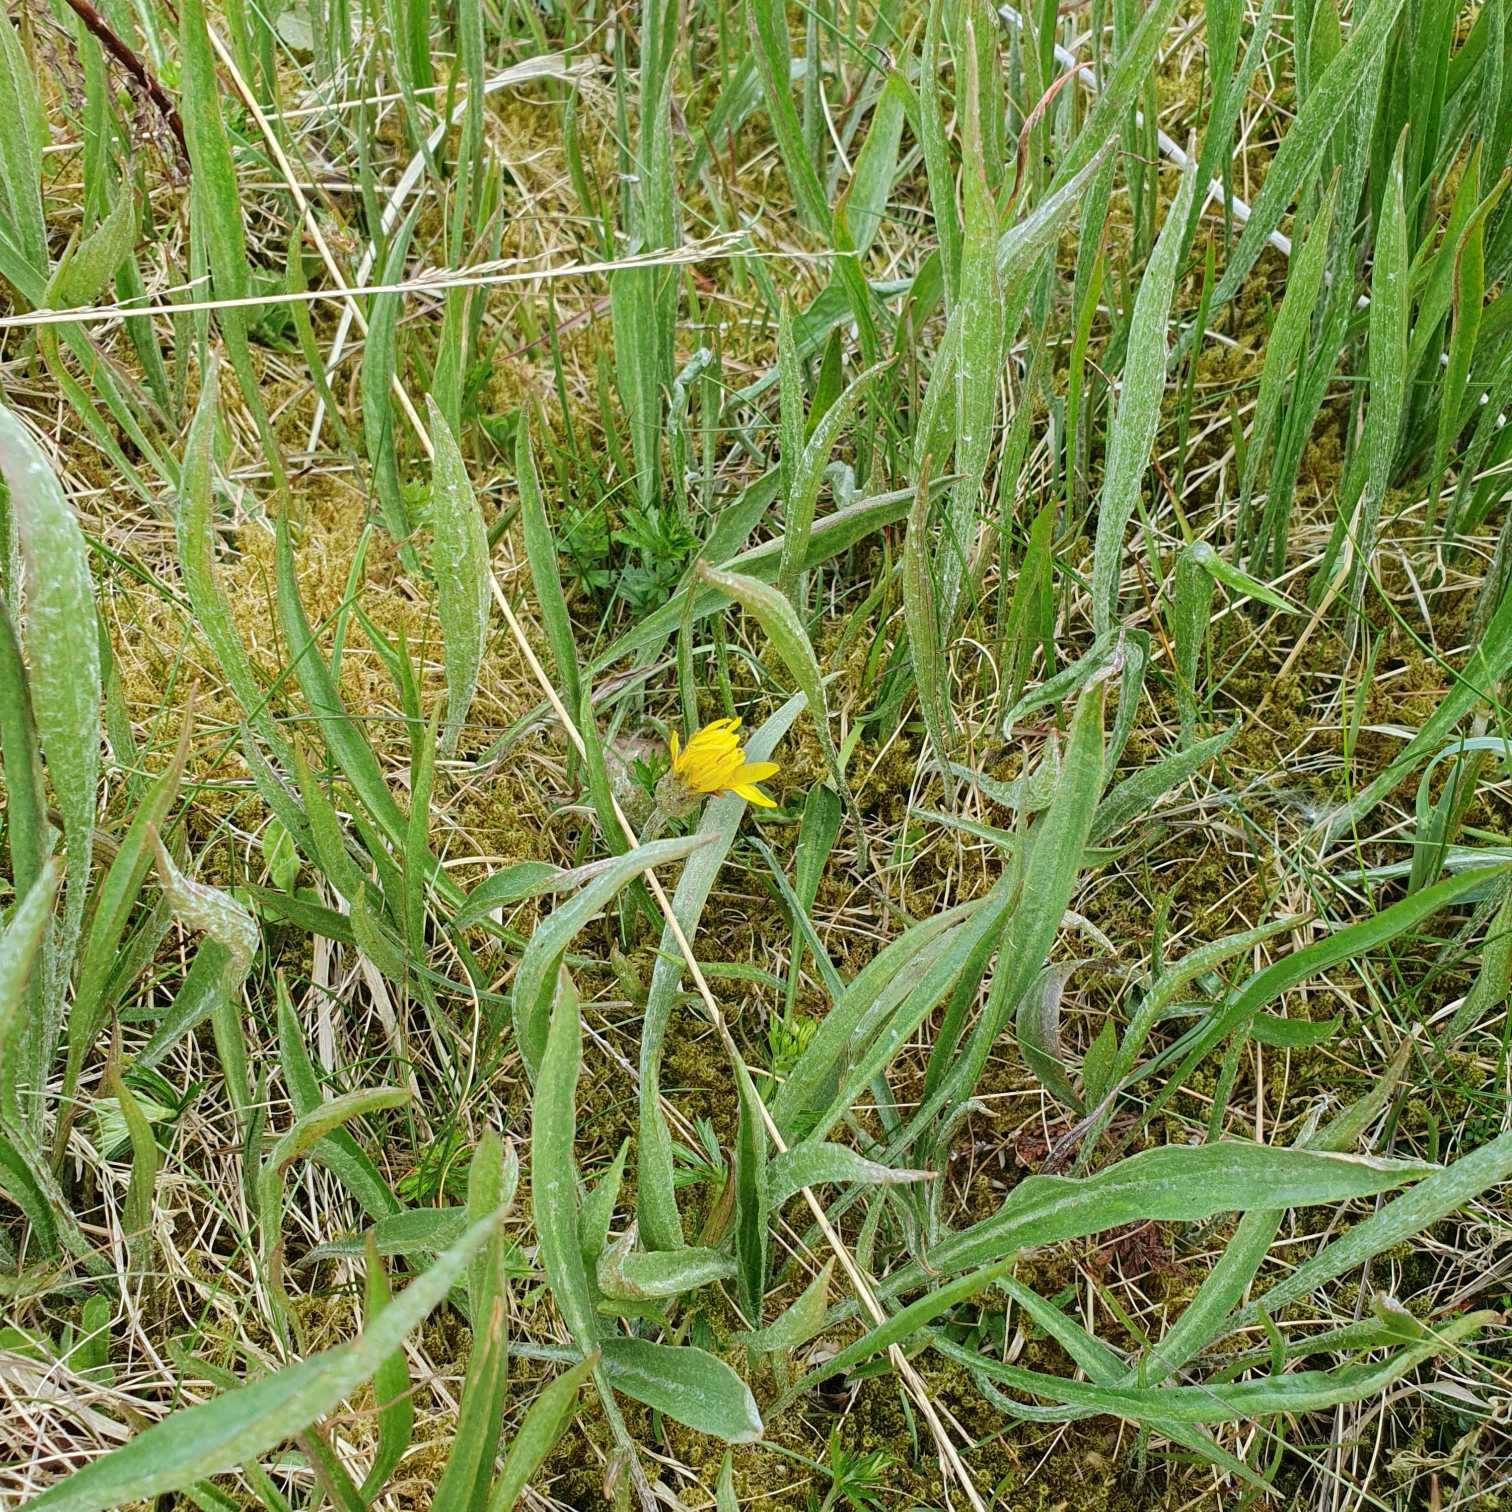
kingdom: Plantae
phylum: Tracheophyta
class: Magnoliopsida
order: Asterales
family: Asteraceae
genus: Scorzonera
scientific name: Scorzonera humilis
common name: Lav skorsoner
